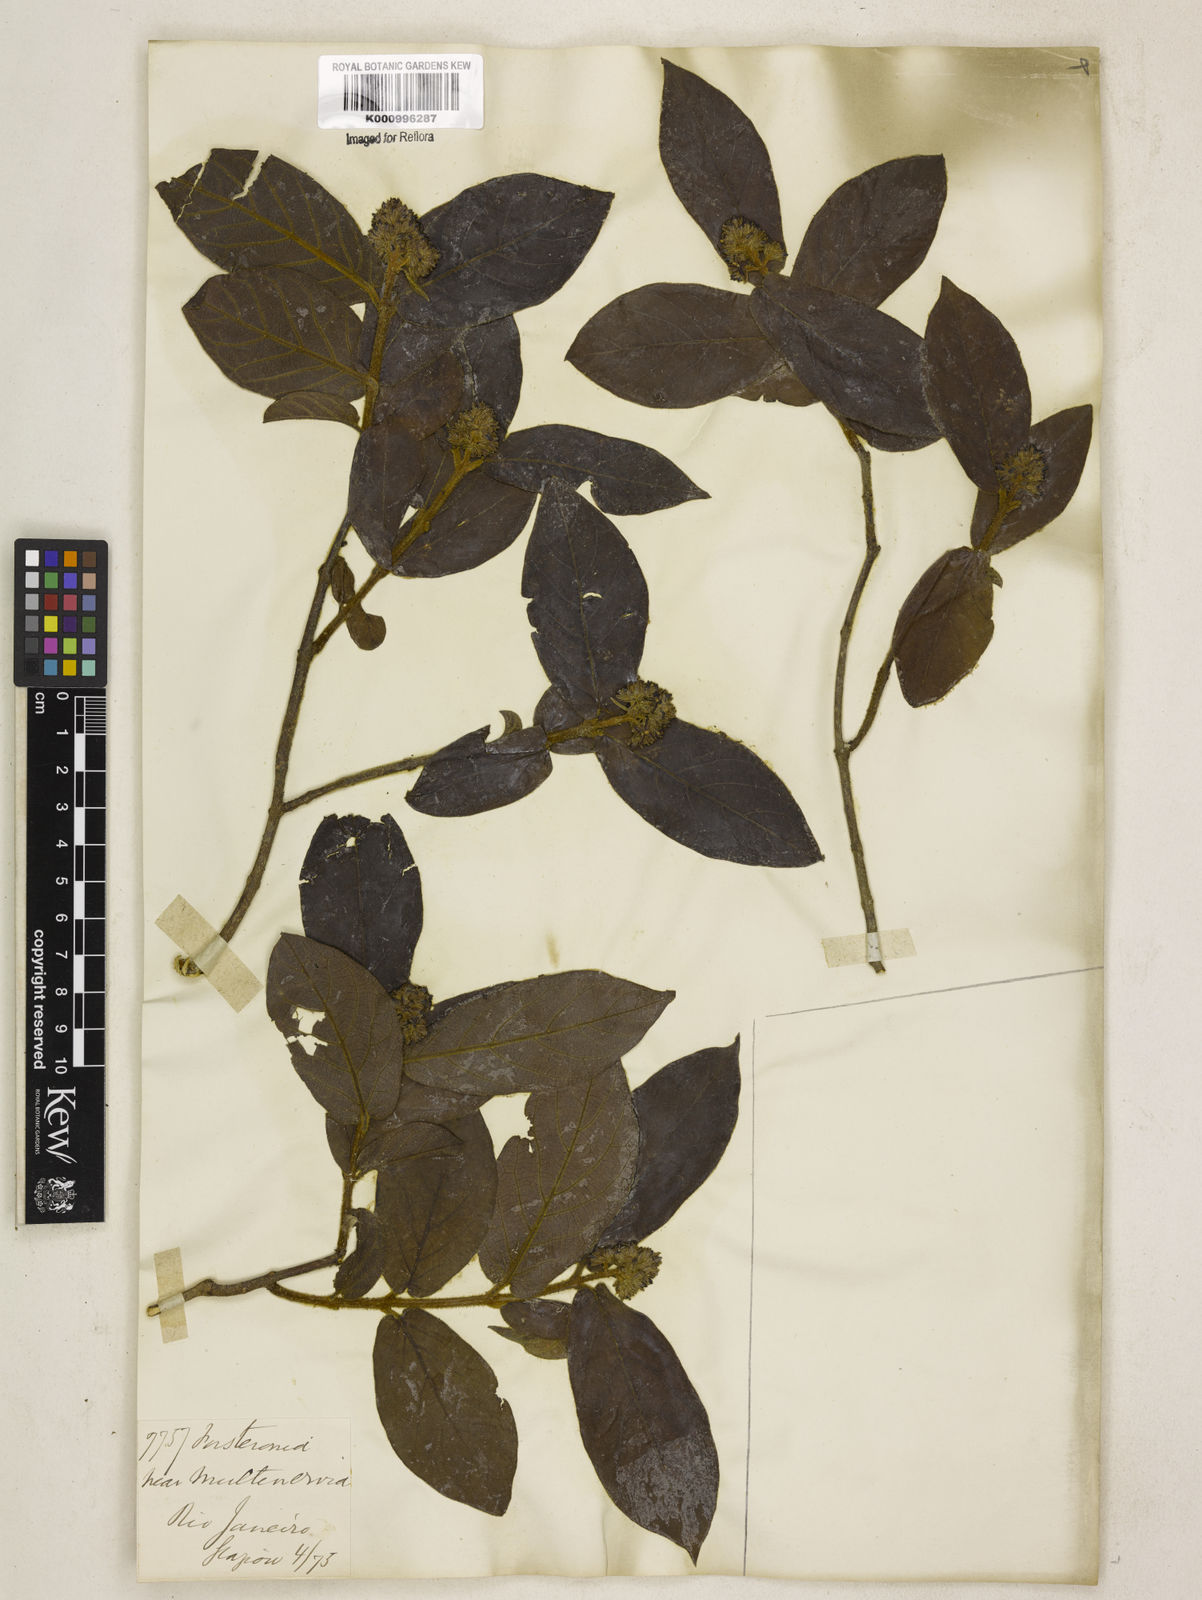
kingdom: Plantae
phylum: Tracheophyta
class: Magnoliopsida
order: Gentianales
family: Apocynaceae
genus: Forsteronia
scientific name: Forsteronia velloziana
